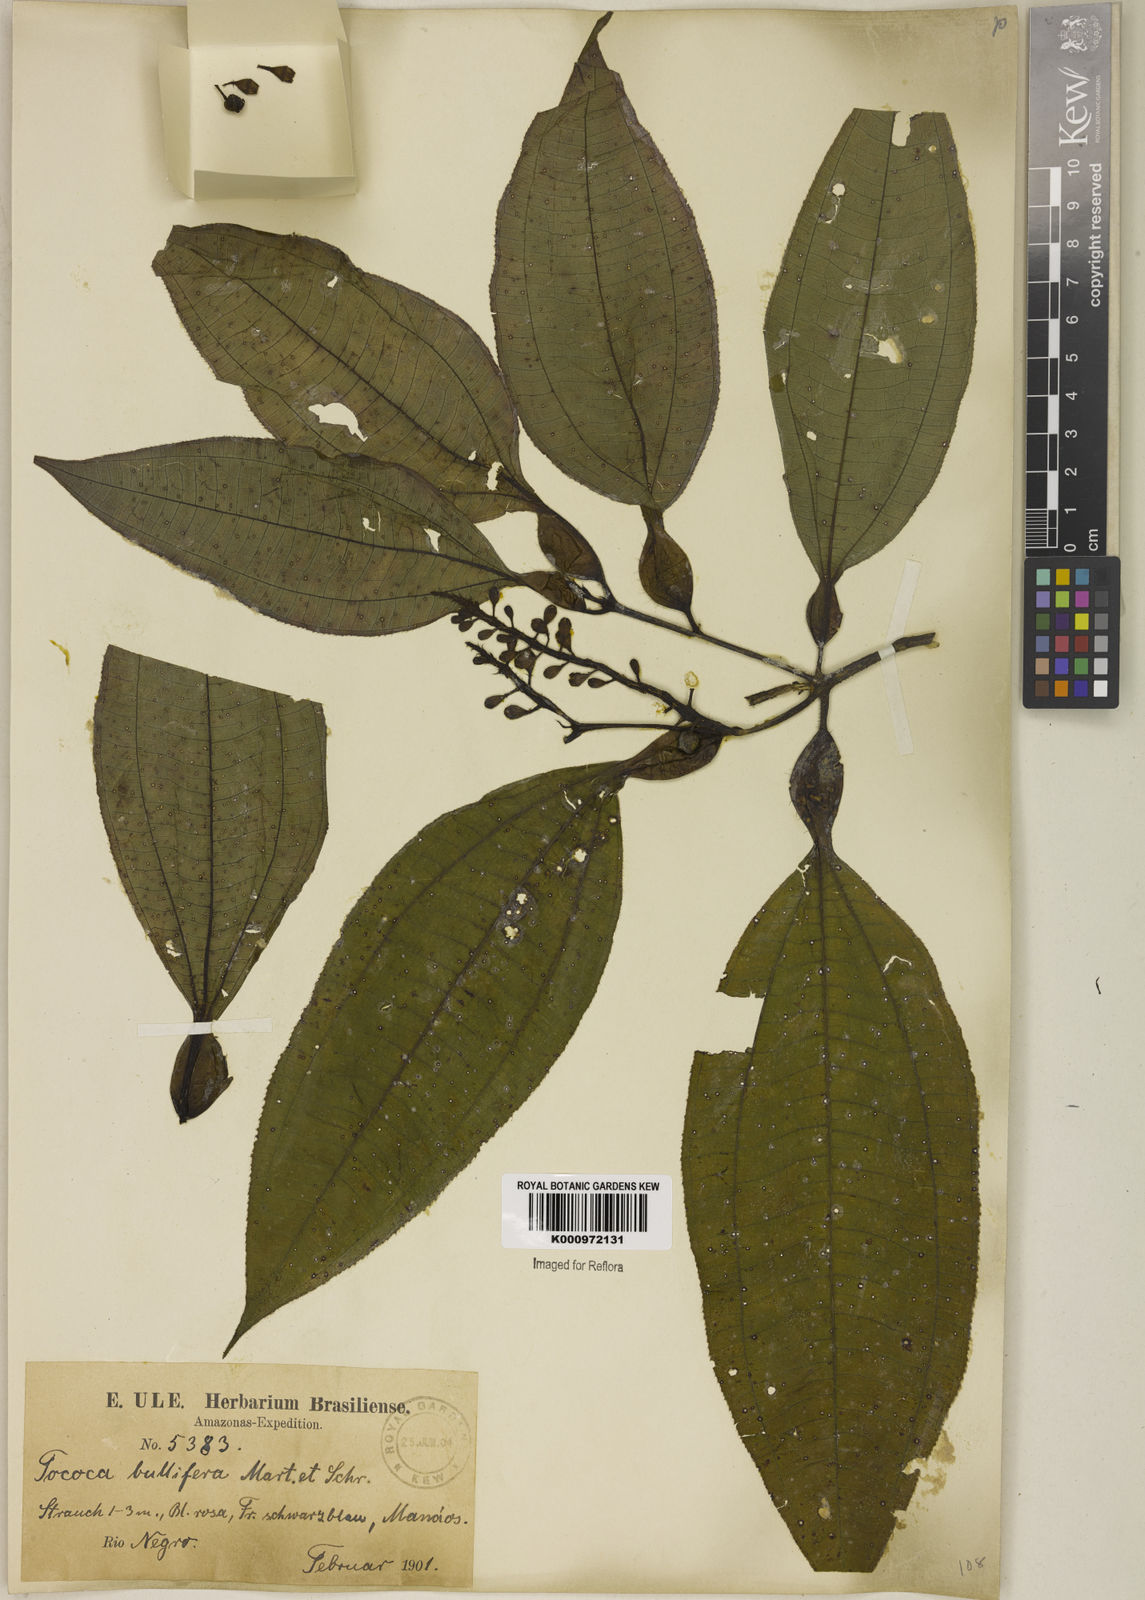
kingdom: Plantae
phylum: Tracheophyta
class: Magnoliopsida
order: Myrtales
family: Melastomataceae
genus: Miconia
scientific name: Miconia bullifera
